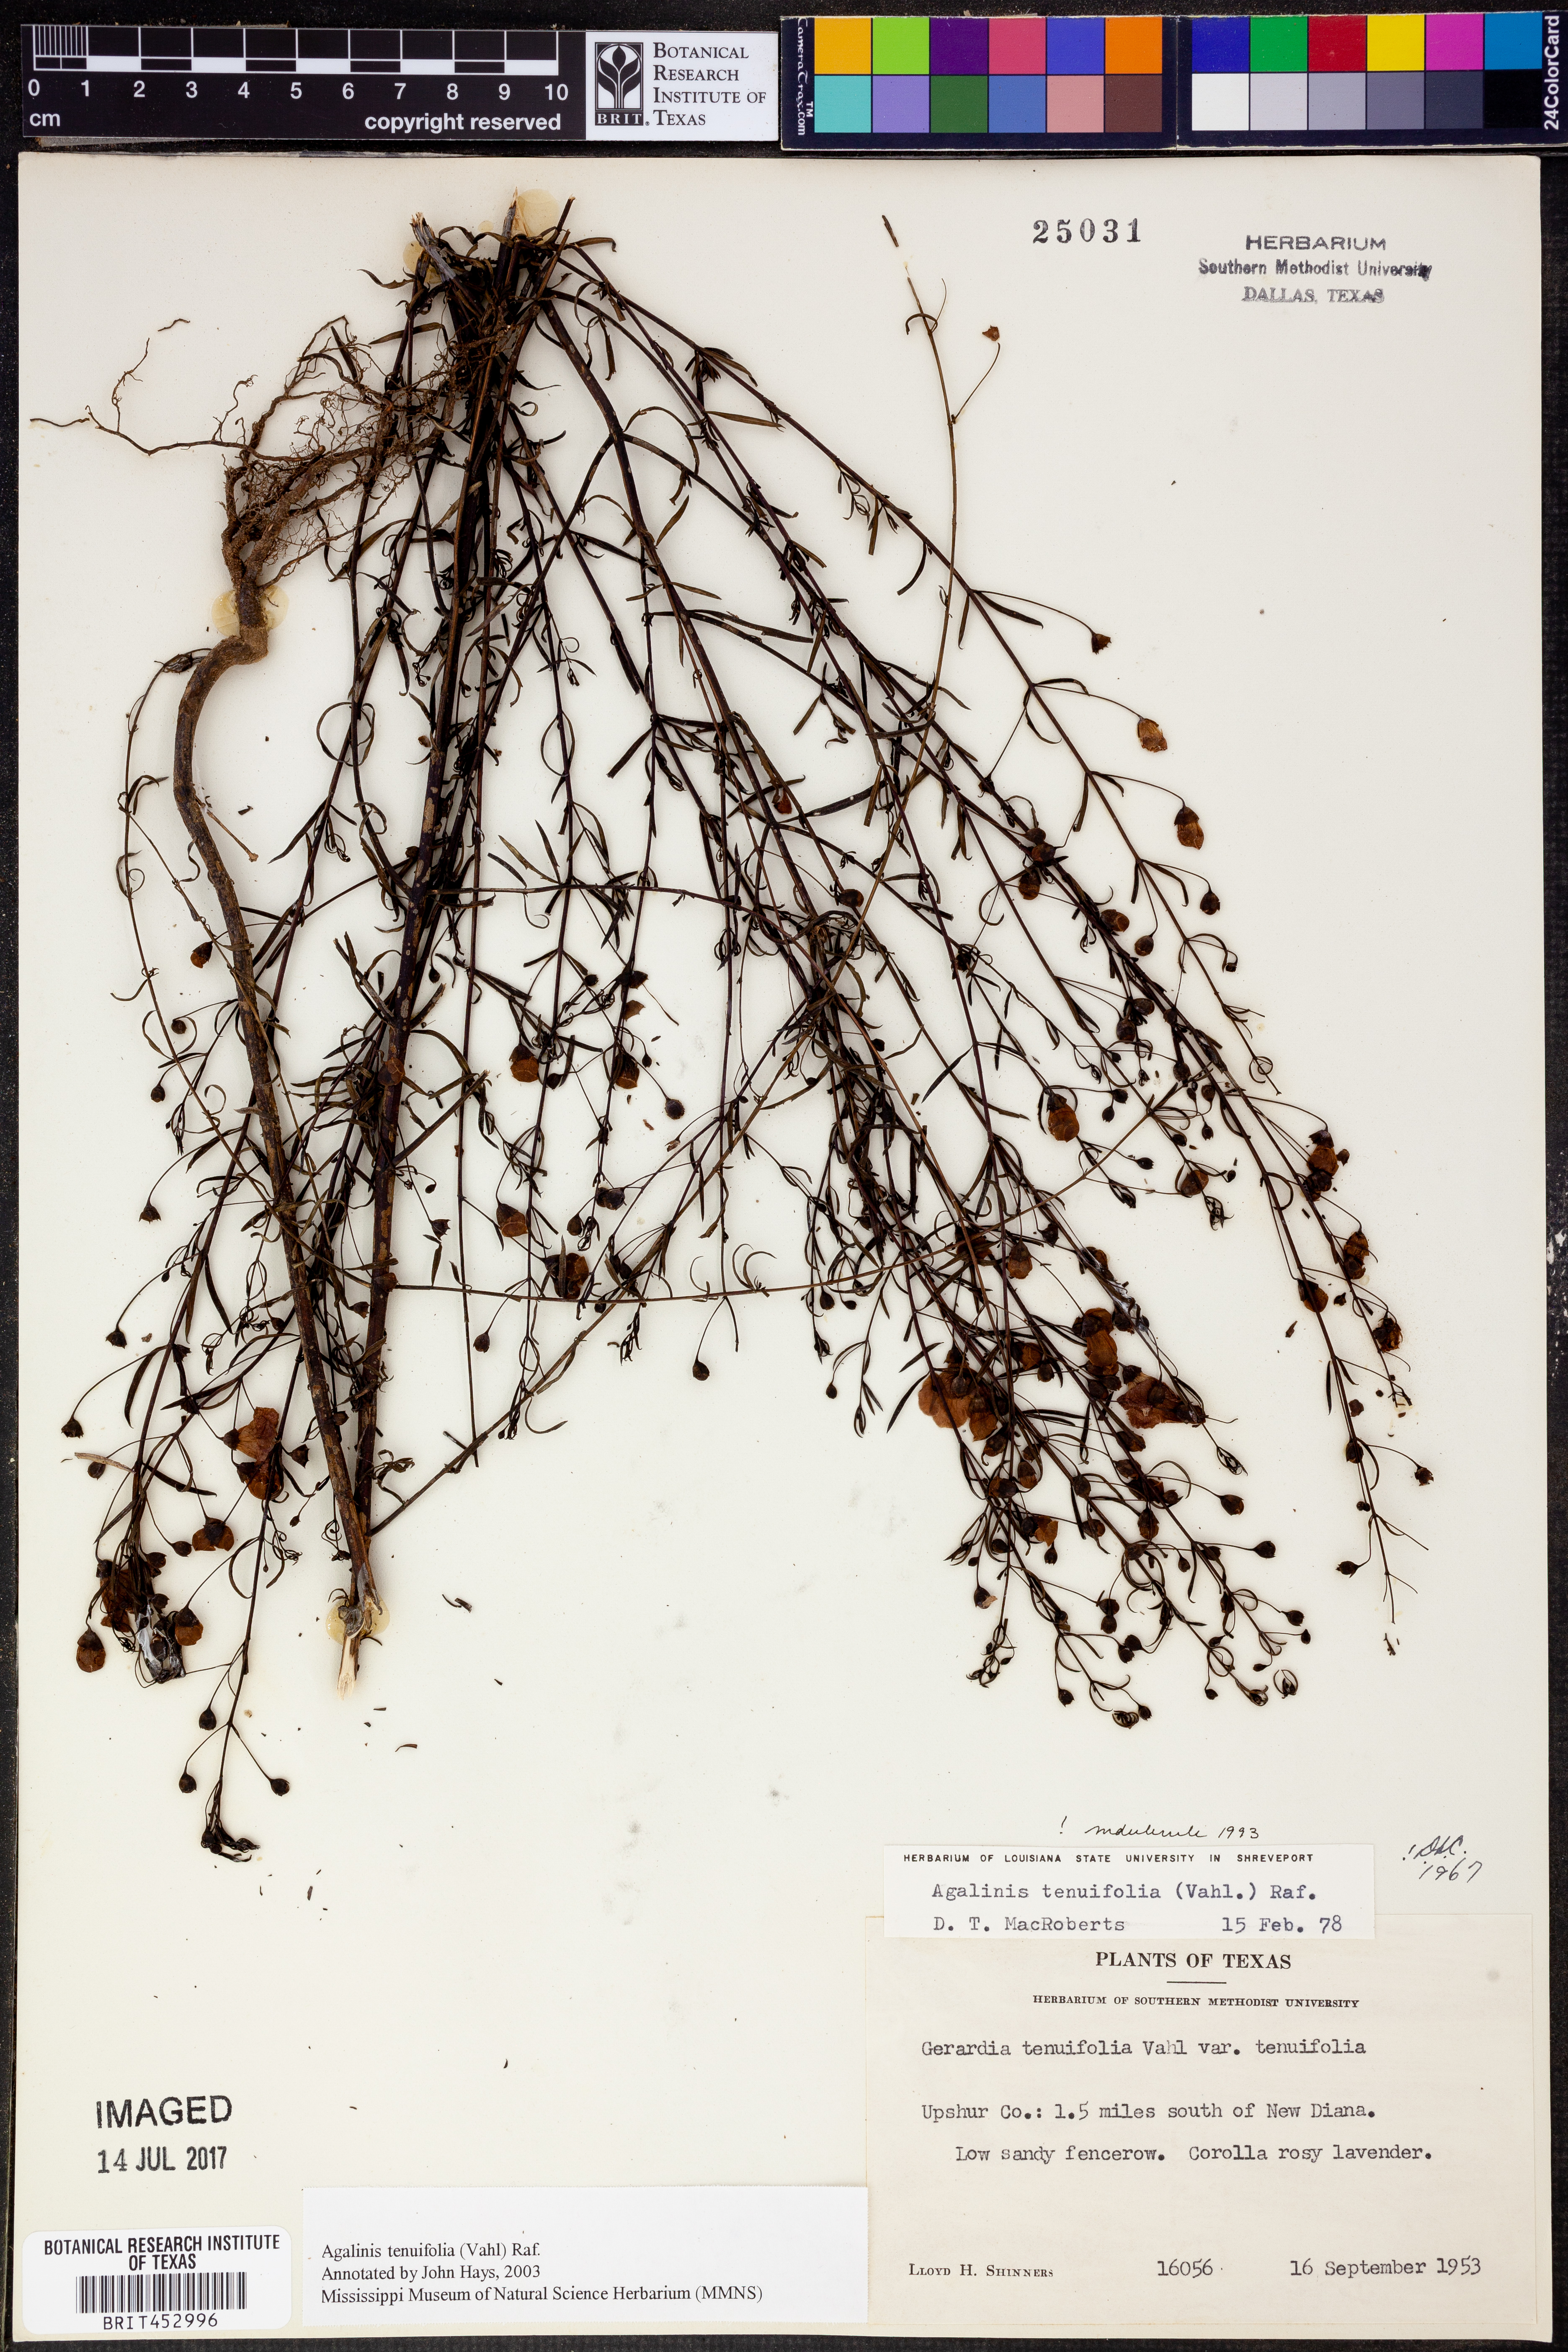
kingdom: Plantae
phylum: Tracheophyta
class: Magnoliopsida
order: Lamiales
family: Orobanchaceae
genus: Agalinis
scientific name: Agalinis tenuifolia
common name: Slender agalinis
